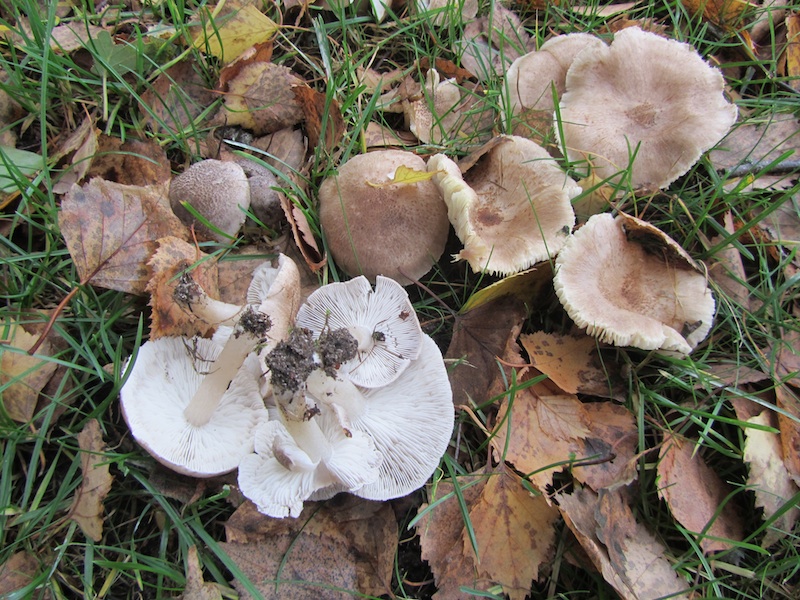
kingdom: Fungi
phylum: Basidiomycota
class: Agaricomycetes
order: Agaricales
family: Tricholomataceae
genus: Tricholoma
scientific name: Tricholoma argyraceum
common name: spids ridderhat
